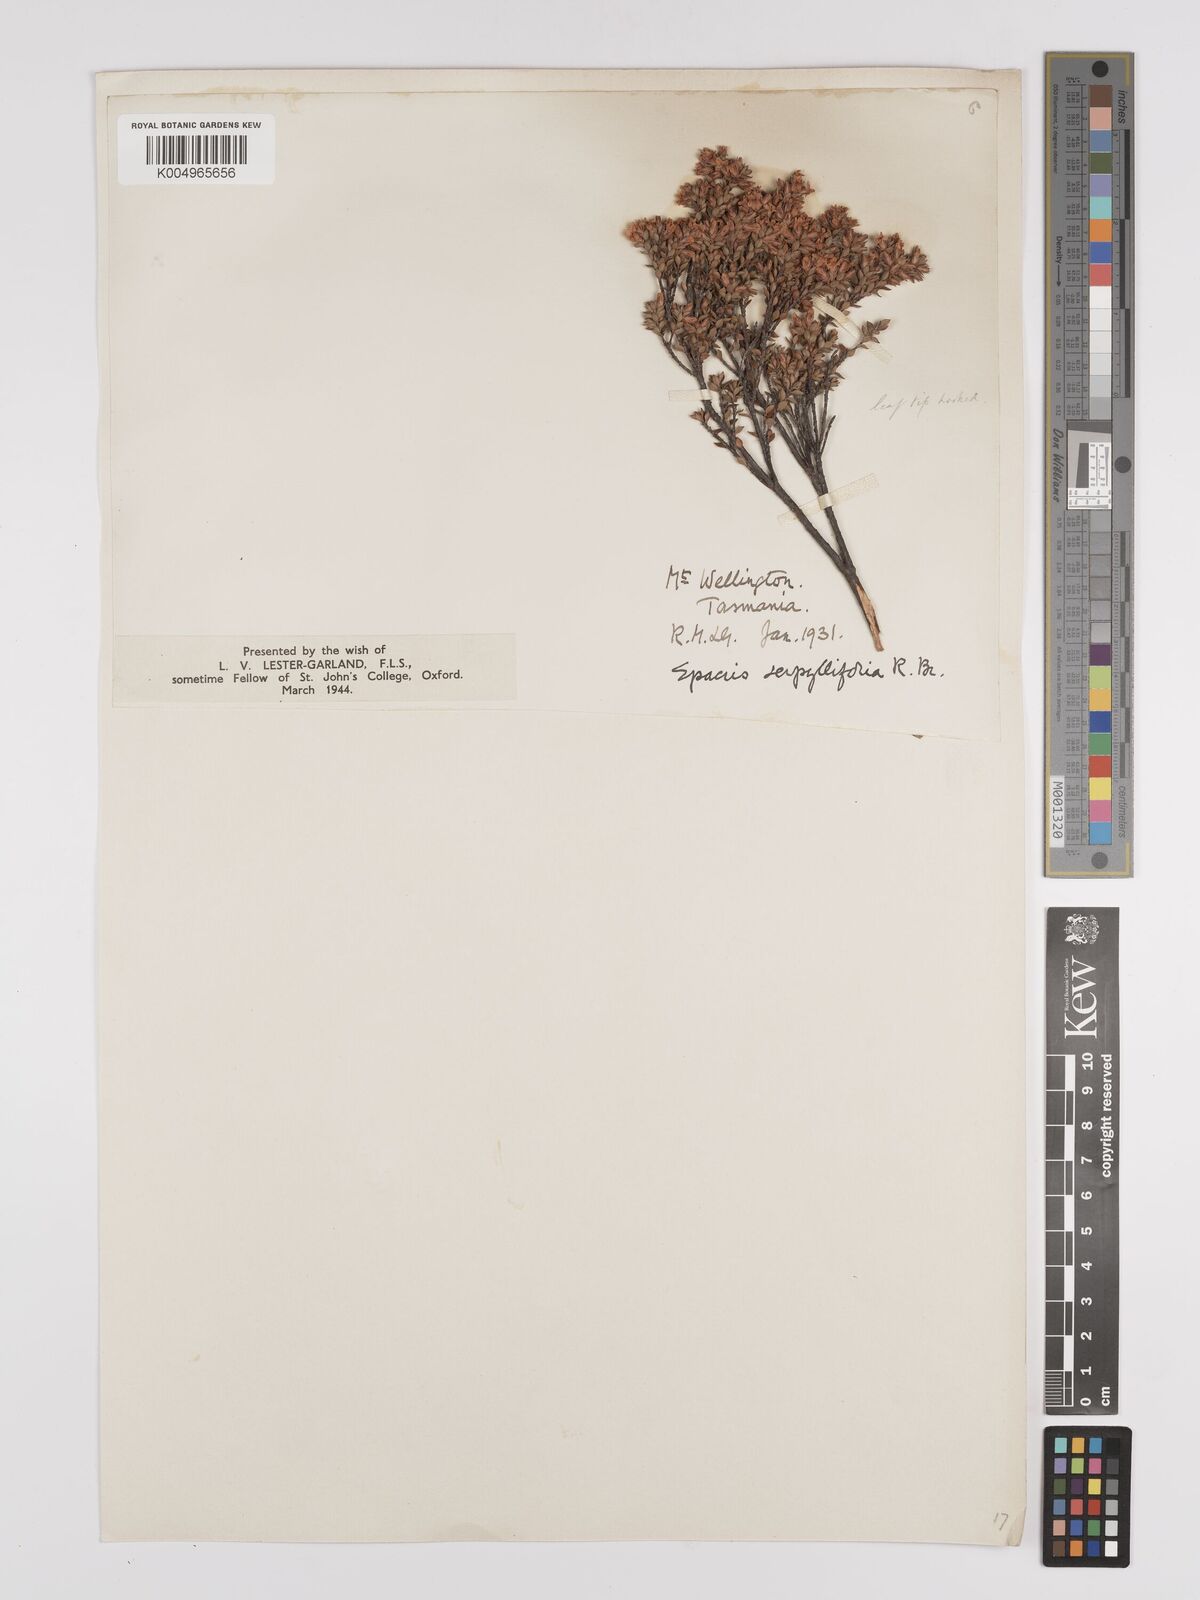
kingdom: Plantae
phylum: Tracheophyta
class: Magnoliopsida
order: Ericales
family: Ericaceae
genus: Epacris
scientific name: Epacris serpyllifolia
